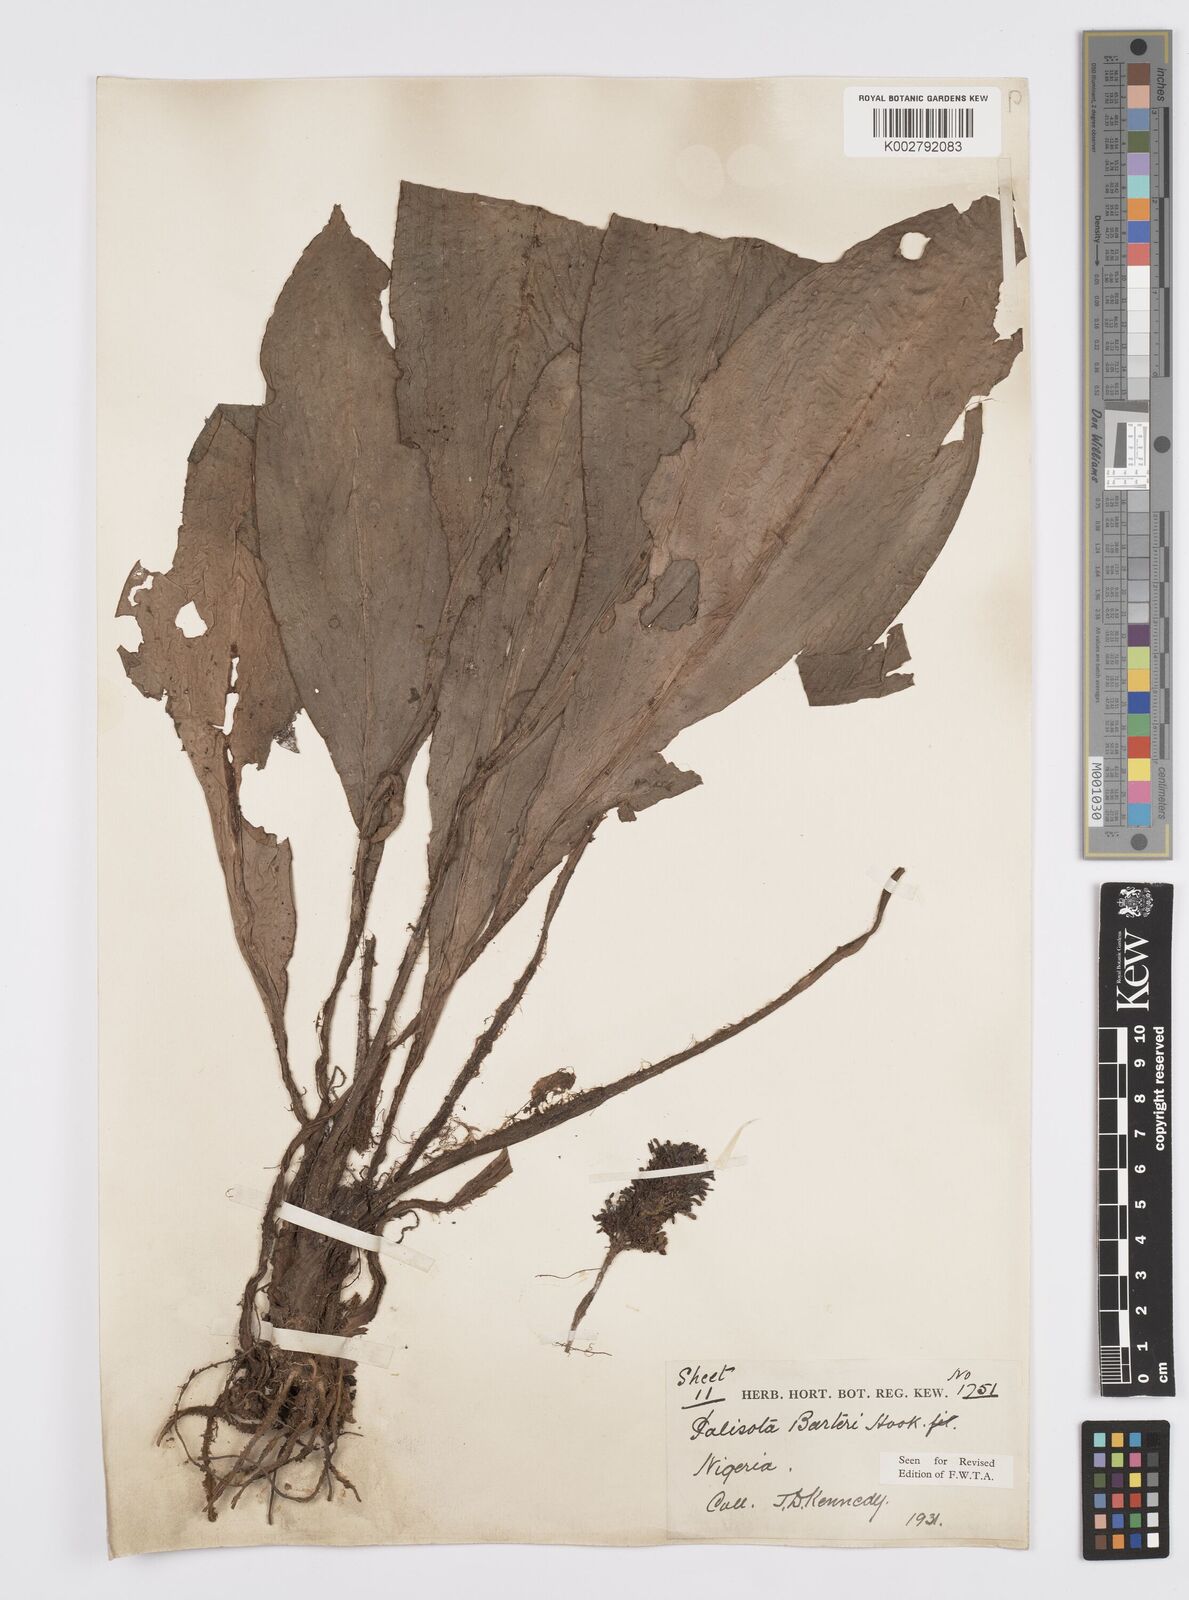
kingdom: Plantae
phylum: Tracheophyta
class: Liliopsida
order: Commelinales
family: Commelinaceae
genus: Palisota
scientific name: Palisota barteri
